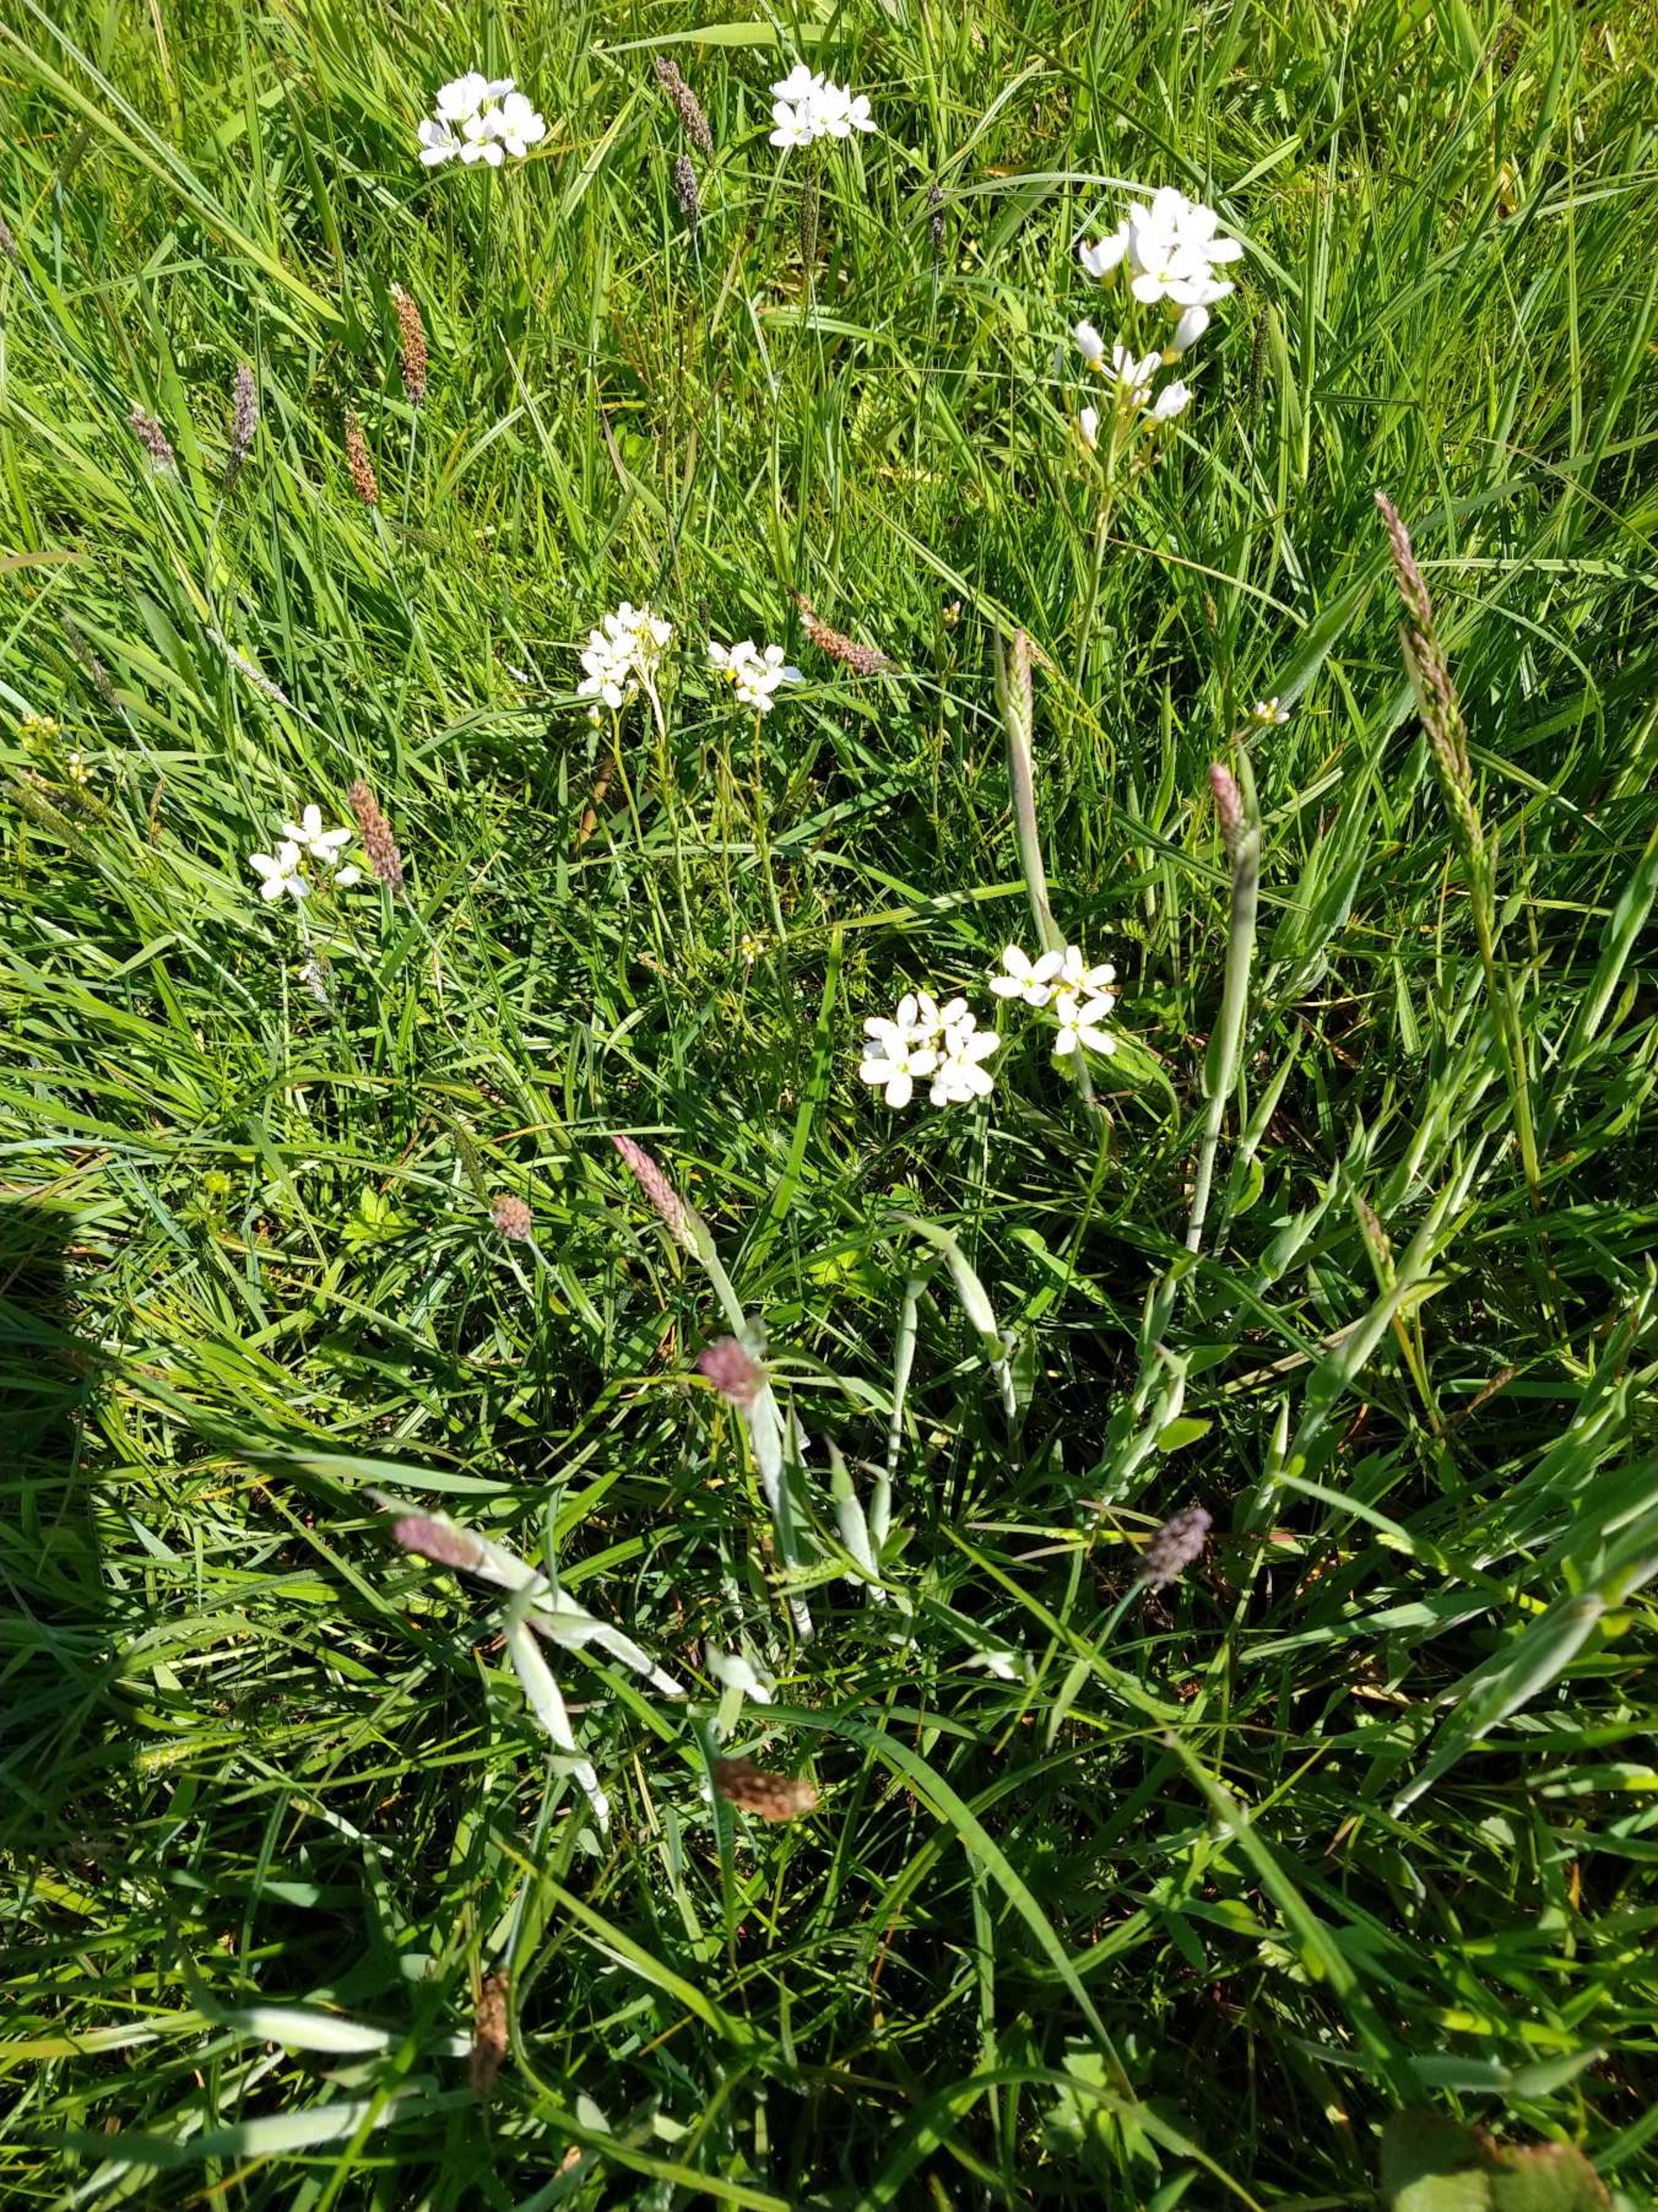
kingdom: Plantae
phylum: Tracheophyta
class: Magnoliopsida
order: Brassicales
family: Brassicaceae
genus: Cardamine
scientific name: Cardamine pratensis
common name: Engkarse
